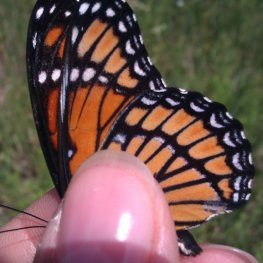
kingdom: Animalia
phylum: Arthropoda
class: Insecta
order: Lepidoptera
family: Nymphalidae
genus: Limenitis
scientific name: Limenitis archippus
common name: Viceroy
